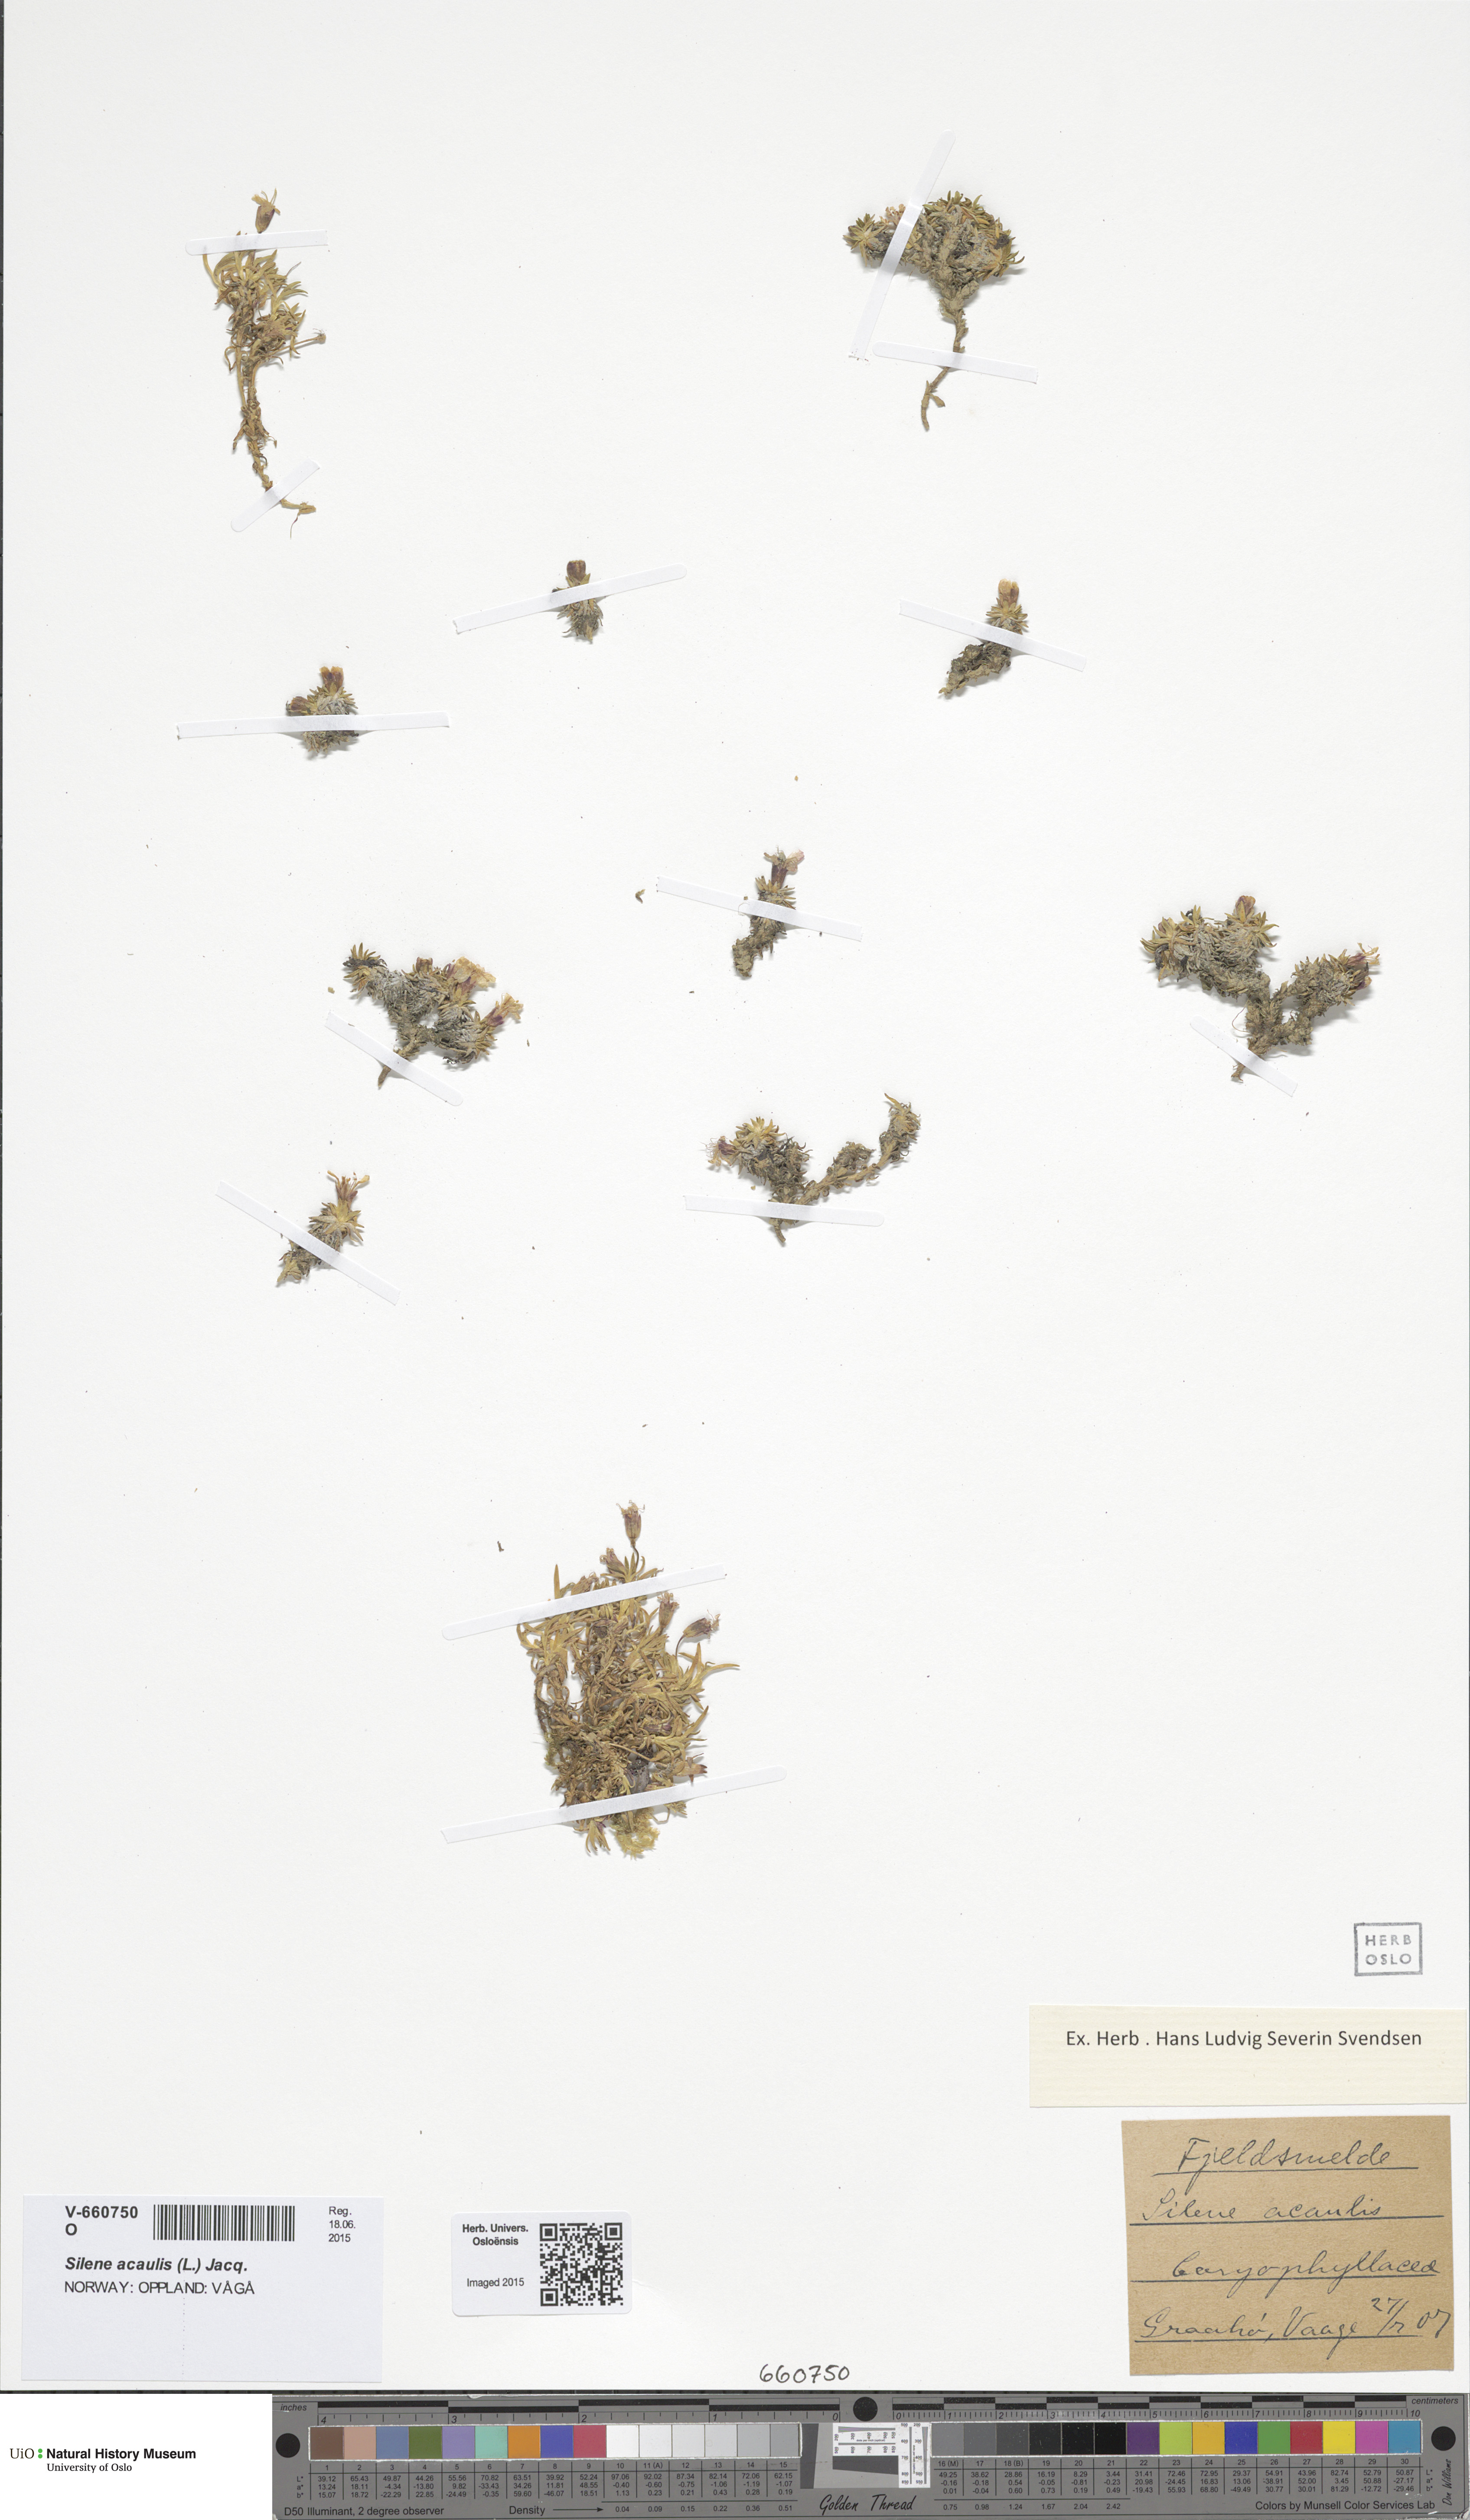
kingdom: Plantae
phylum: Tracheophyta
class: Magnoliopsida
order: Caryophyllales
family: Caryophyllaceae
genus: Silene
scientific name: Silene acaulis
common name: Moss campion
